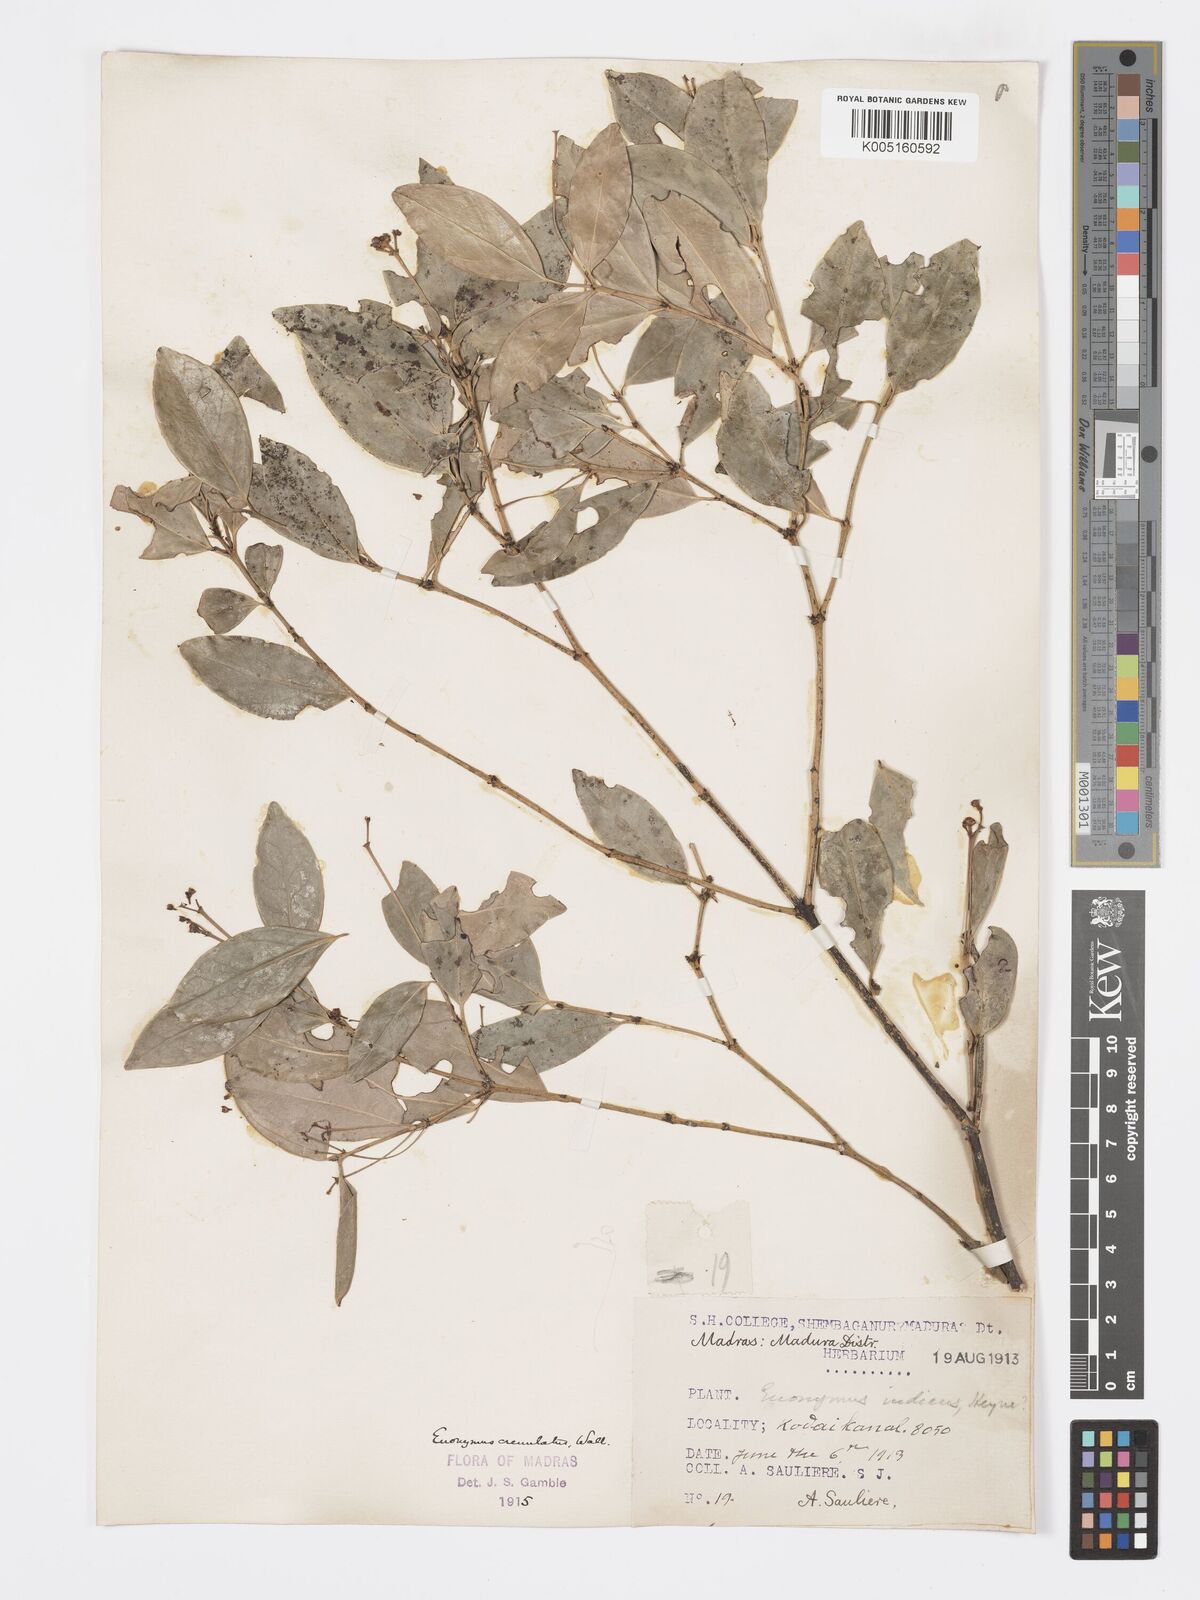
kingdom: Plantae
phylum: Tracheophyta
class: Magnoliopsida
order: Celastrales
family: Celastraceae
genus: Euonymus
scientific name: Euonymus crenulatus
